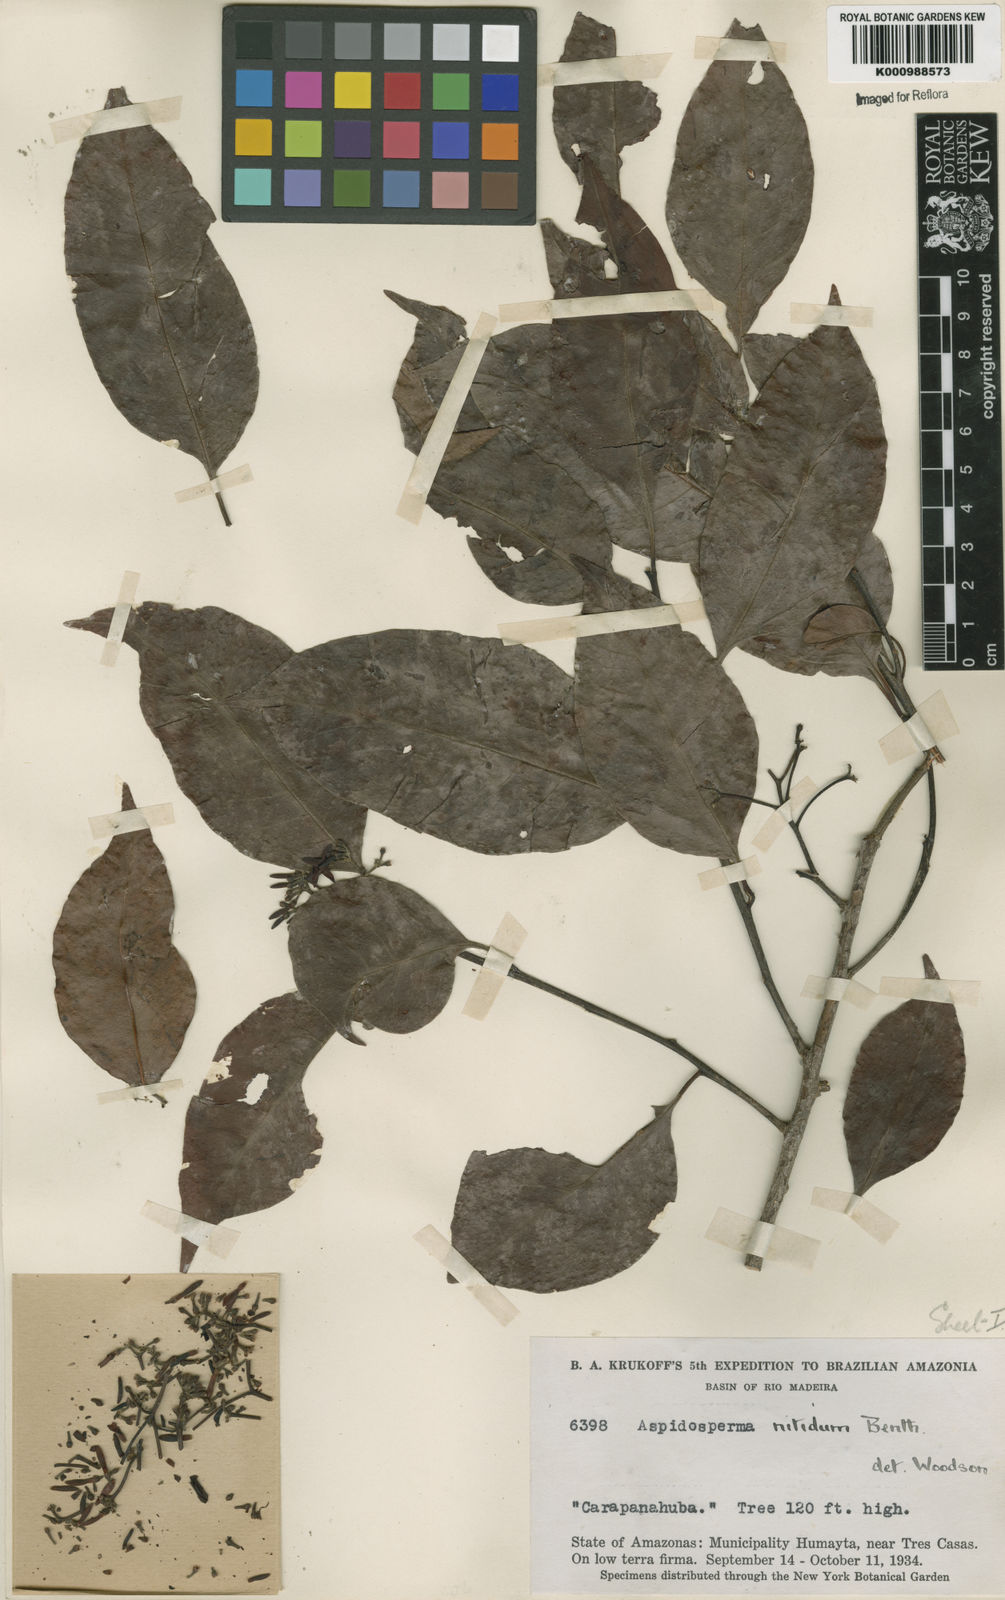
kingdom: Plantae
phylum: Tracheophyta
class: Magnoliopsida
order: Gentianales
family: Apocynaceae
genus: Aspidosperma
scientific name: Aspidosperma
